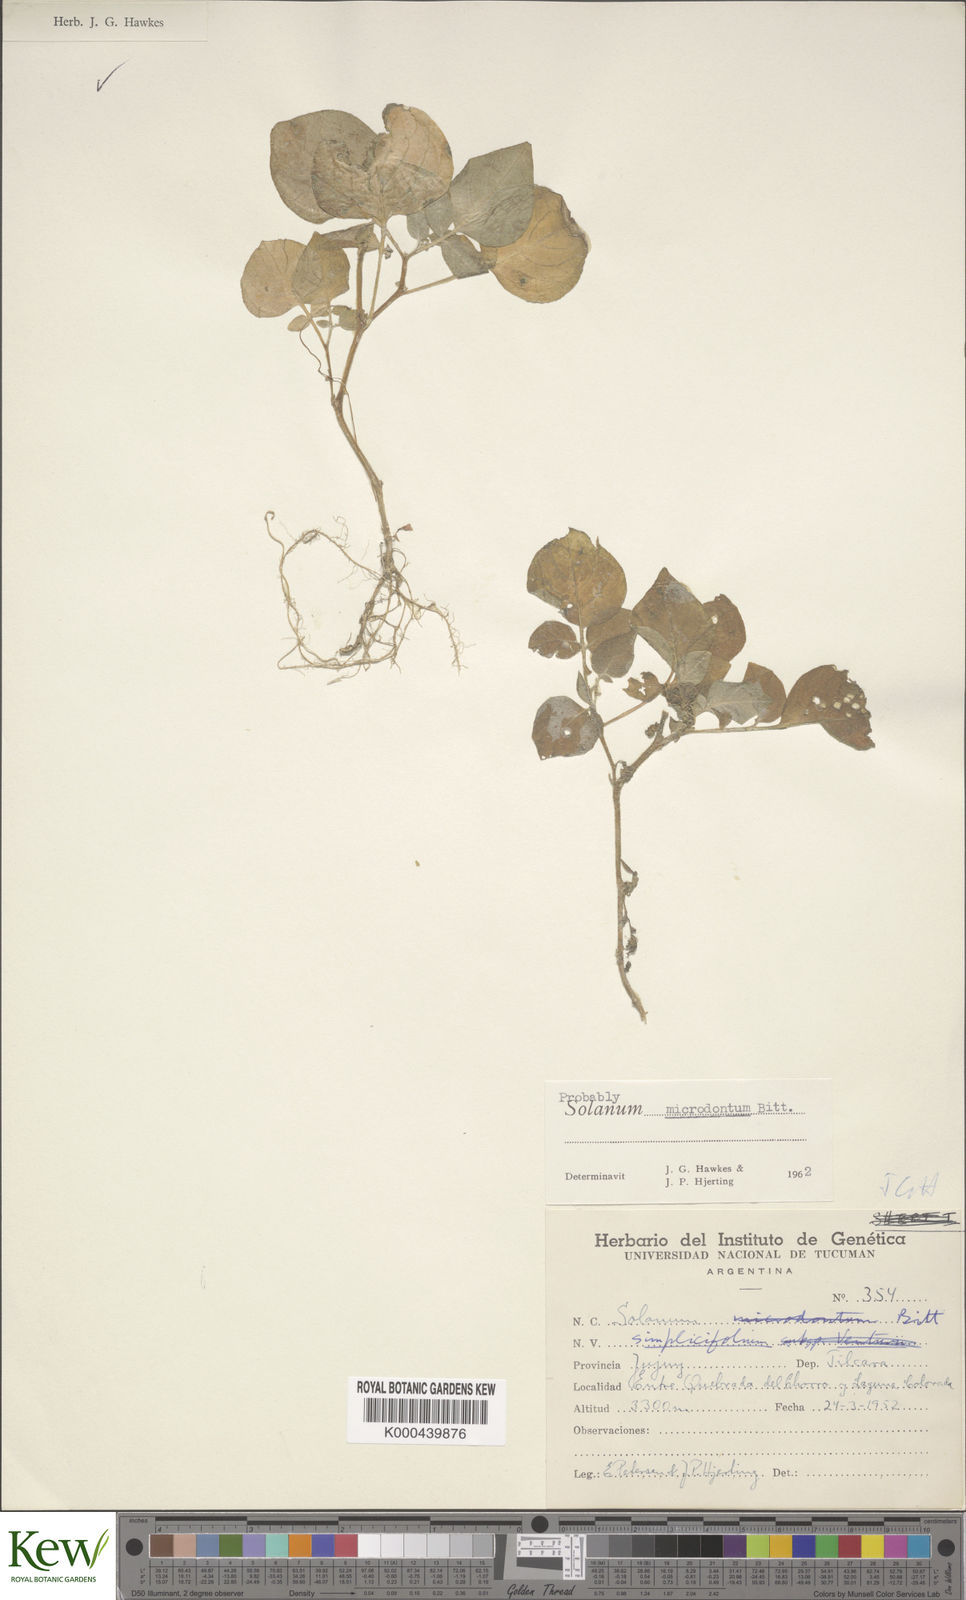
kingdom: Plantae
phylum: Tracheophyta
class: Magnoliopsida
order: Solanales
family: Solanaceae
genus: Solanum
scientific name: Solanum microdontum
